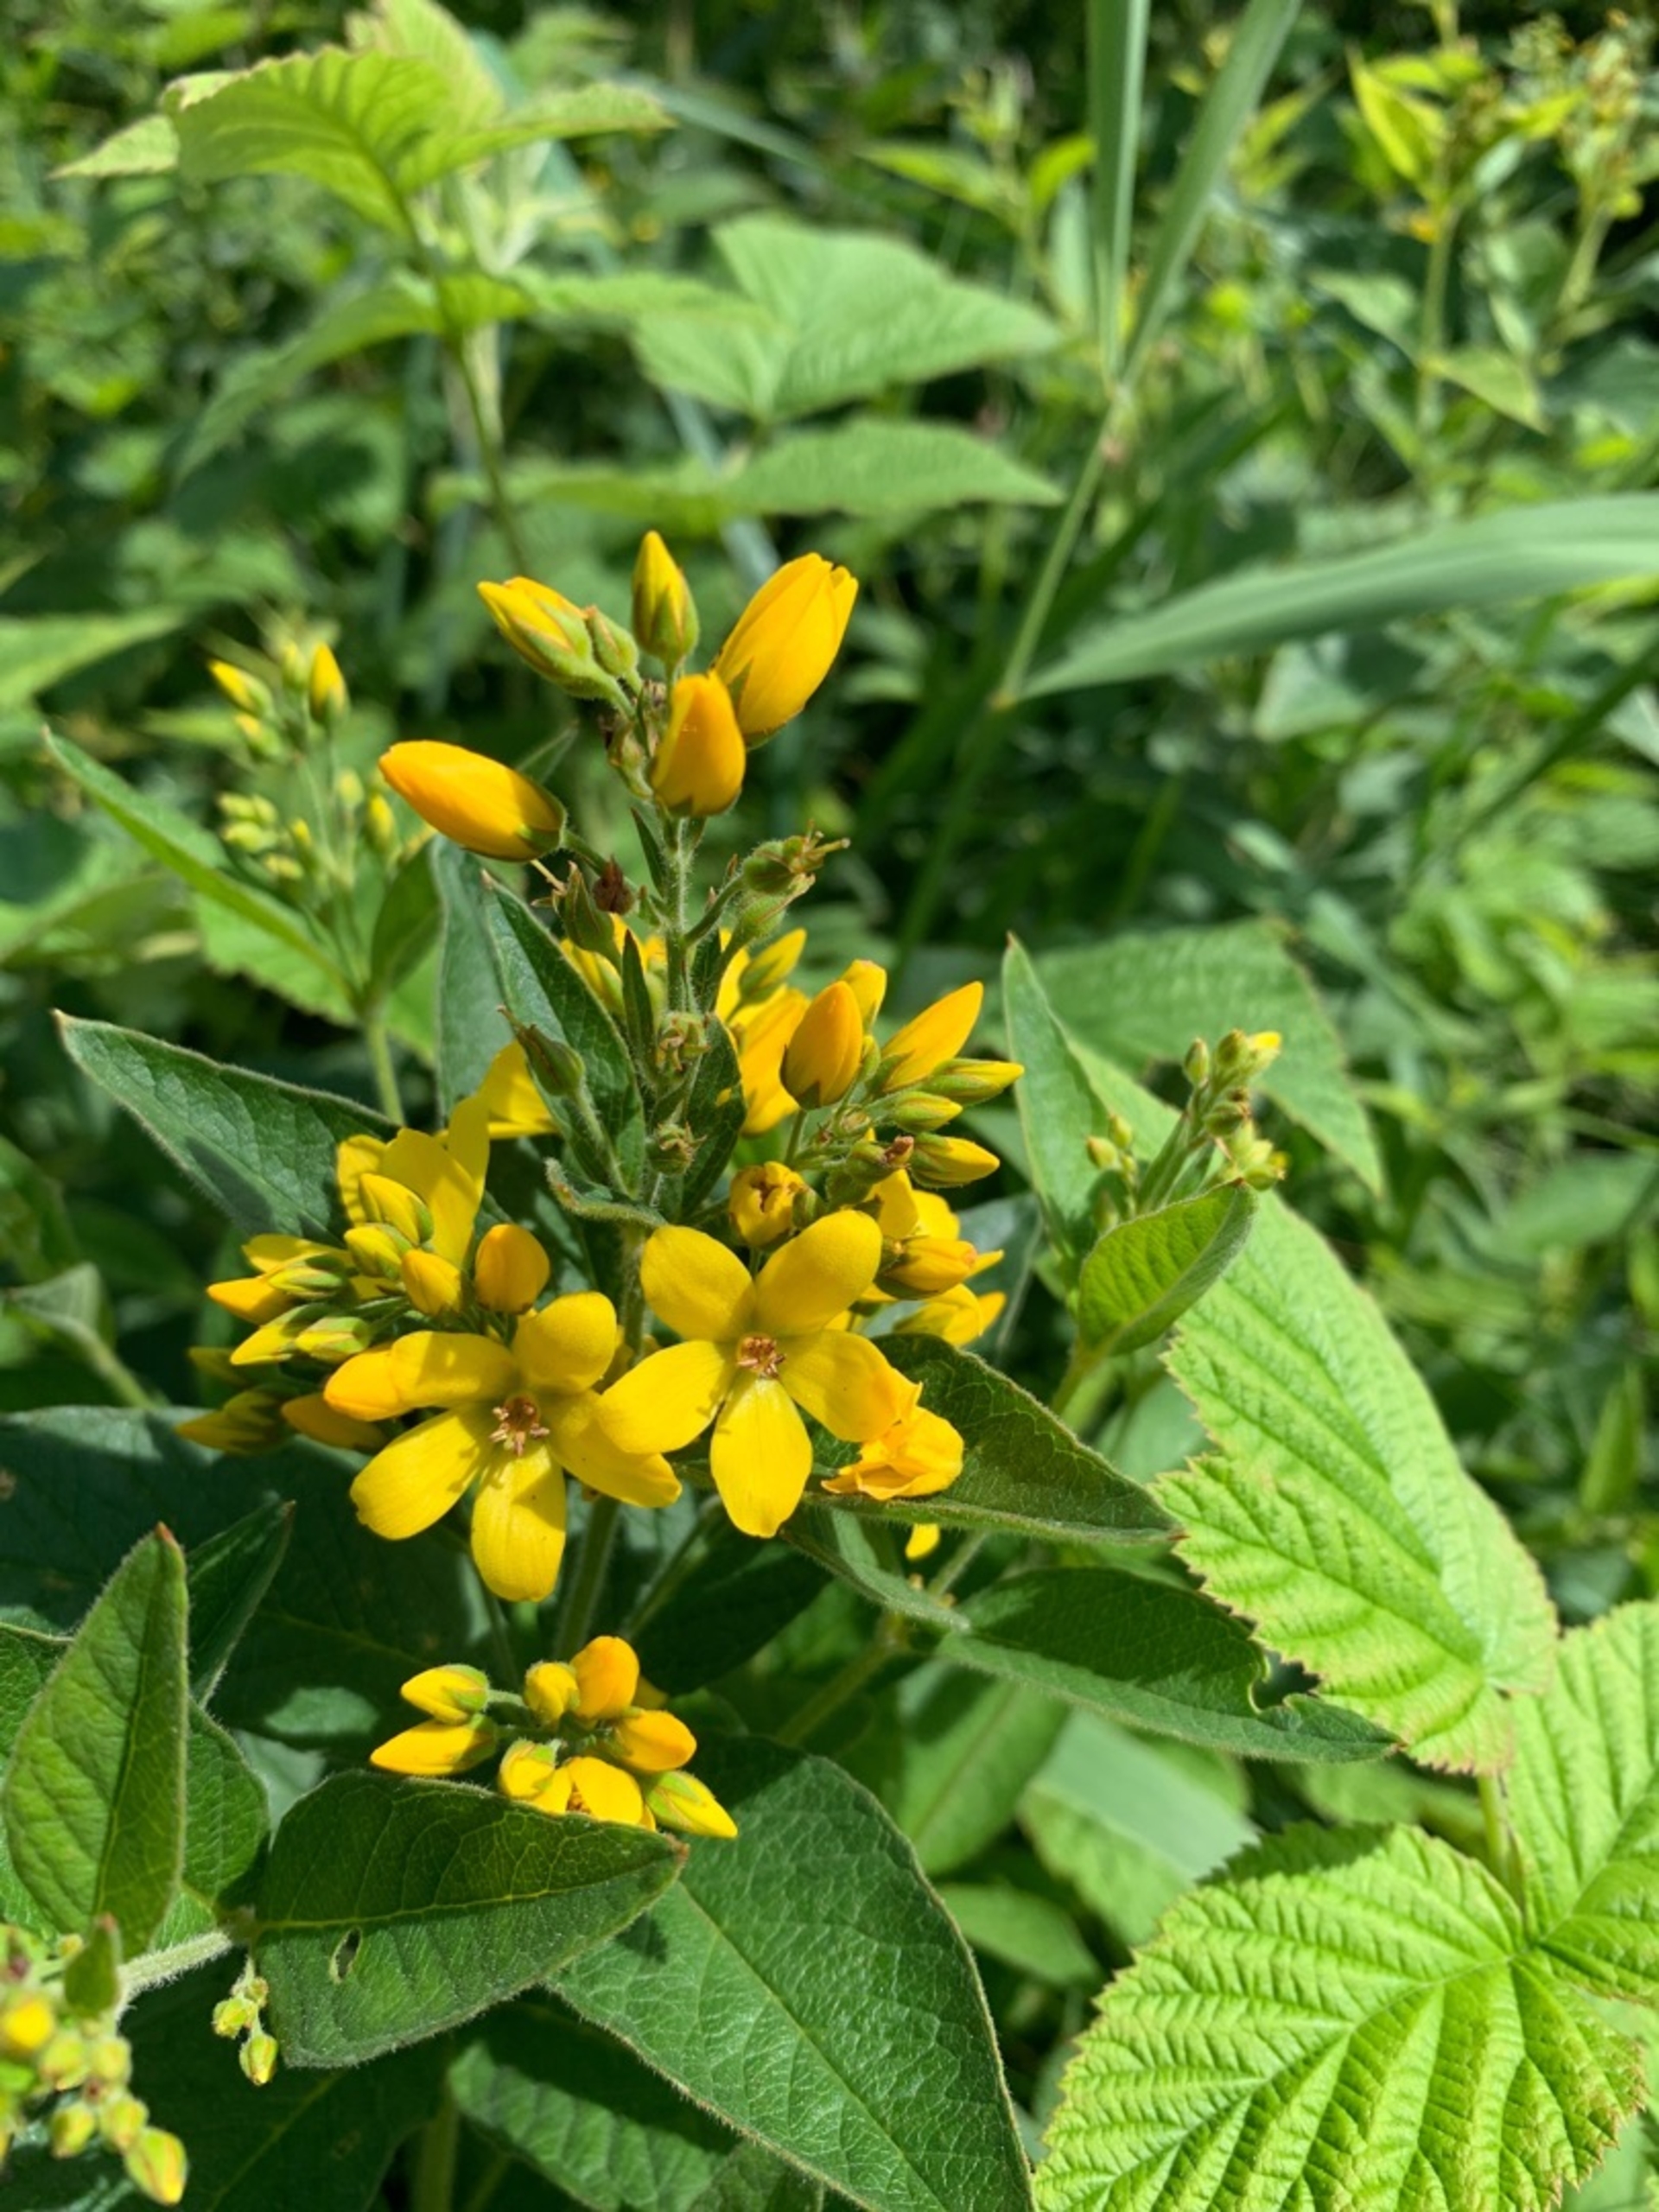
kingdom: Plantae
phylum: Tracheophyta
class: Magnoliopsida
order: Ericales
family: Primulaceae
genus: Lysimachia
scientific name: Lysimachia vulgaris
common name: Almindelig fredløs
